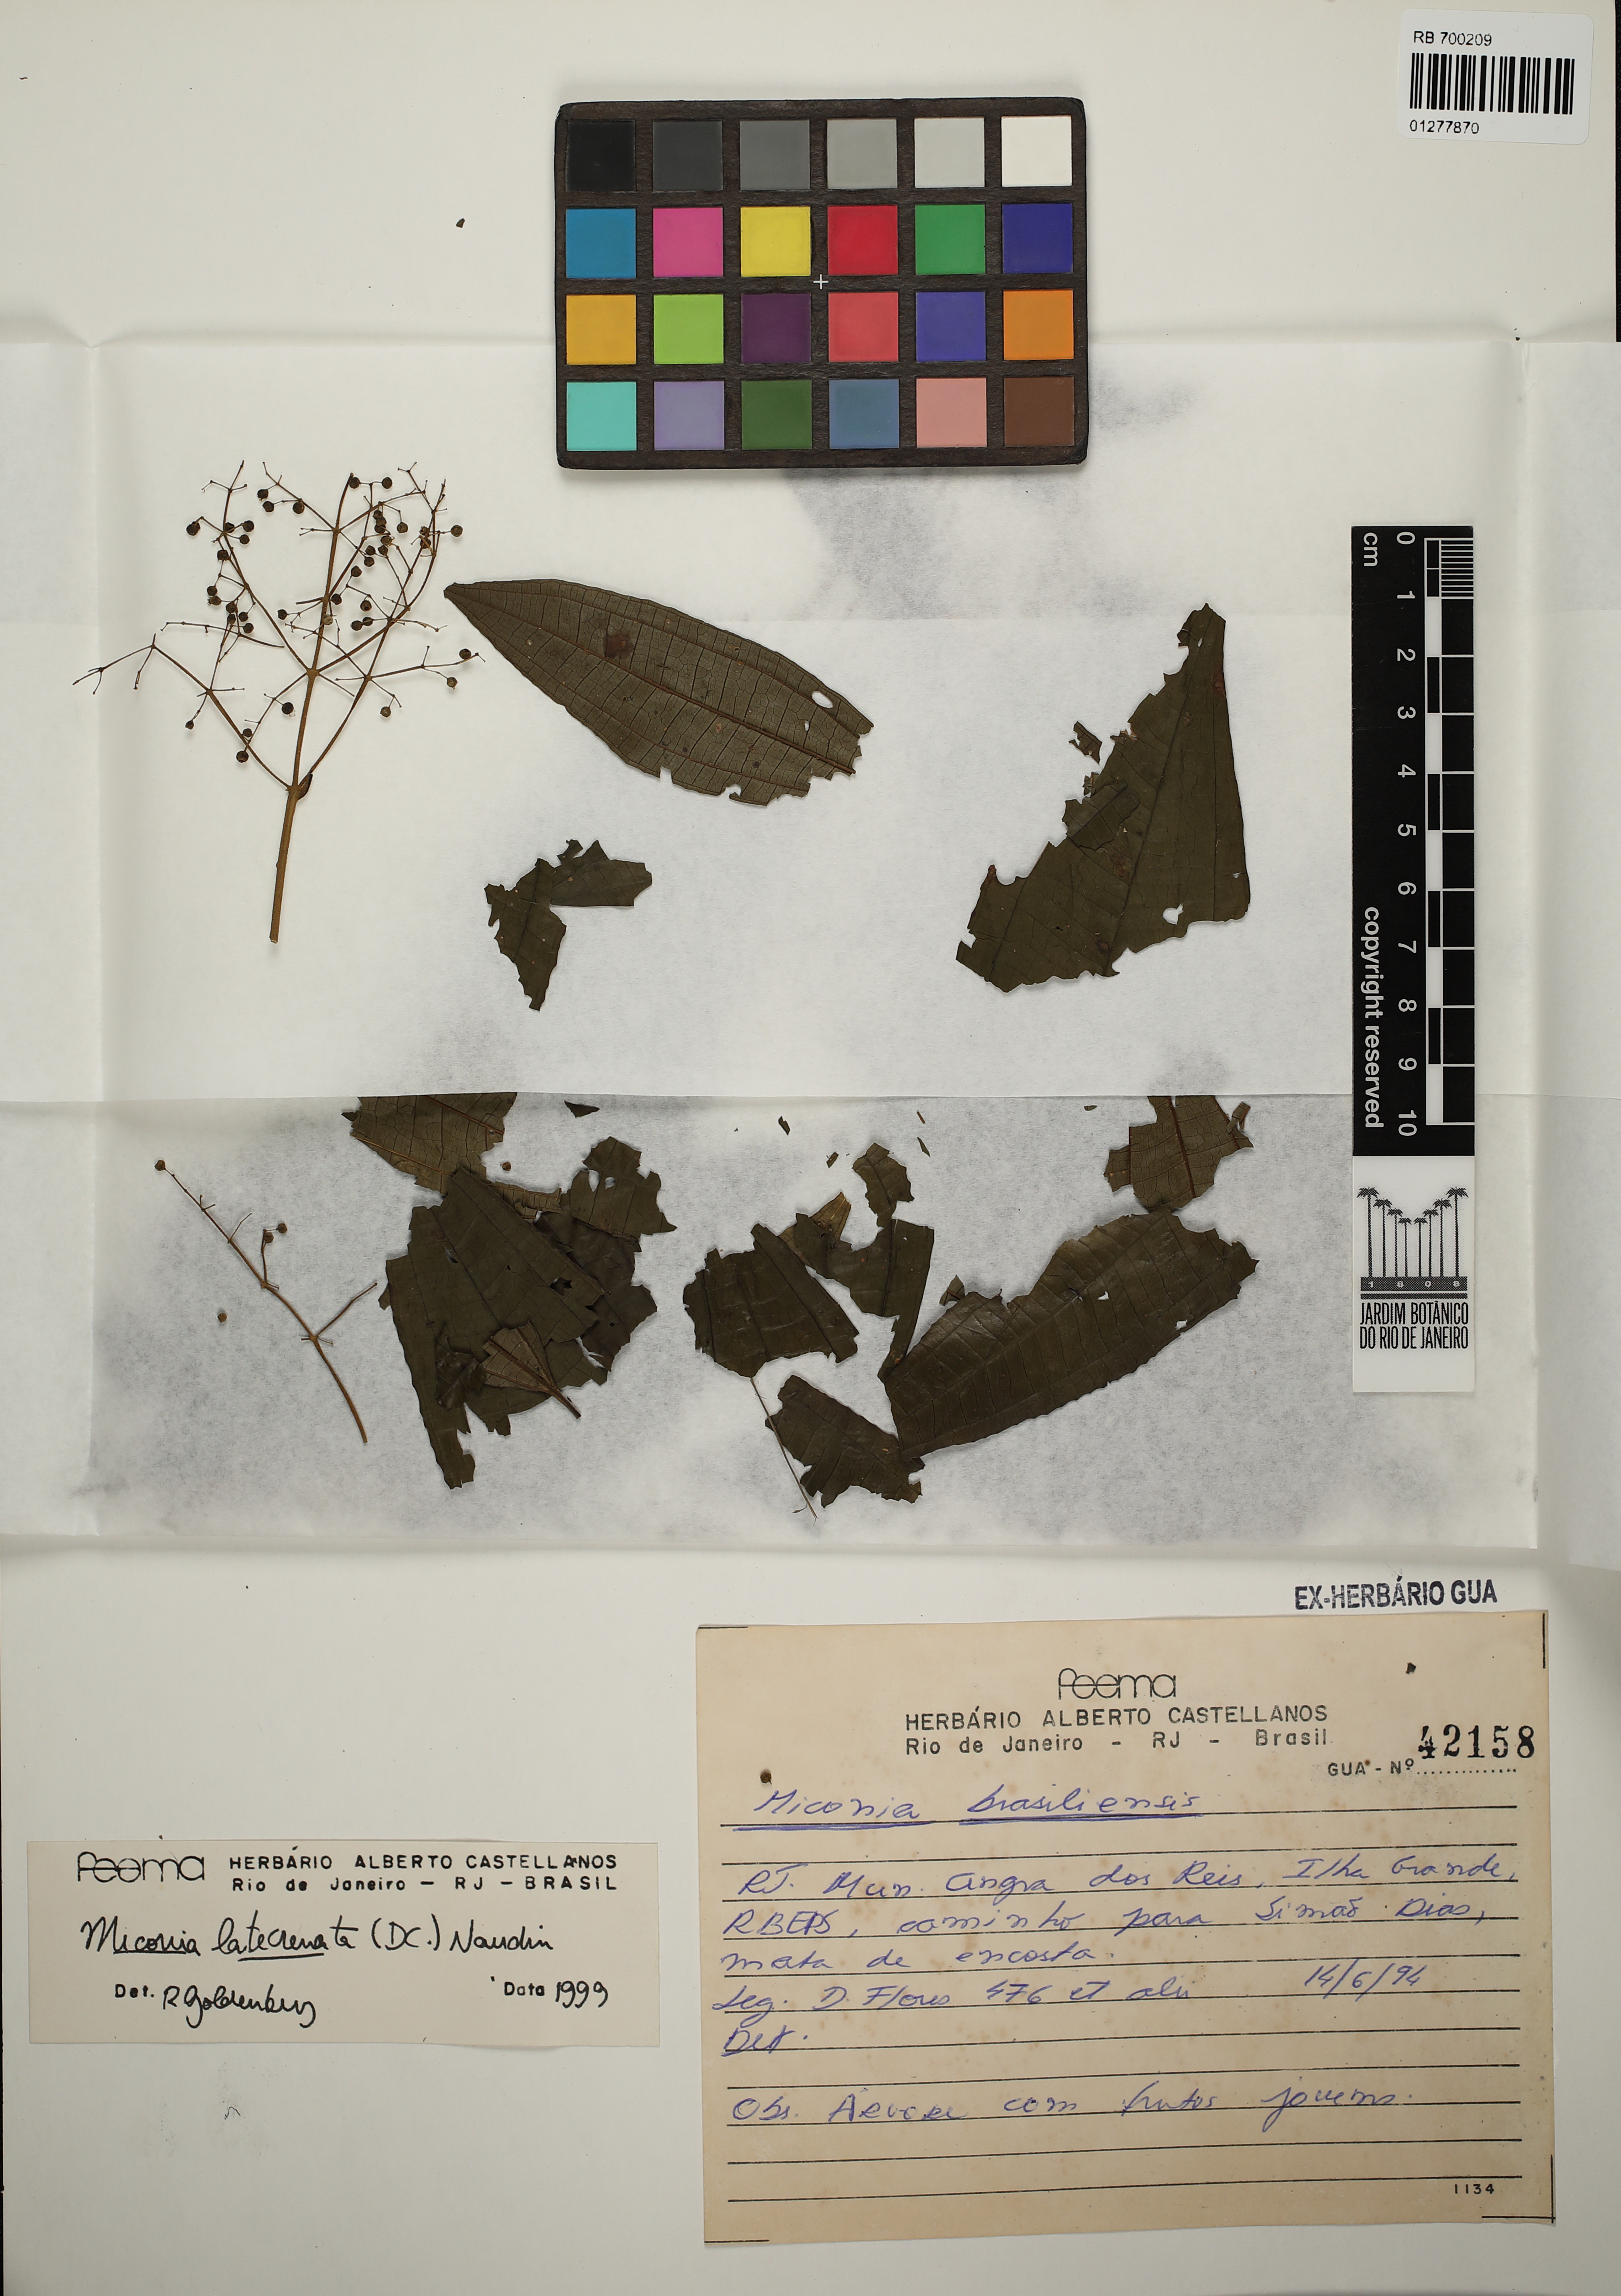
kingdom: Plantae
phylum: Tracheophyta
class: Magnoliopsida
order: Myrtales
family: Melastomataceae
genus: Miconia
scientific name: Miconia latecrenata
